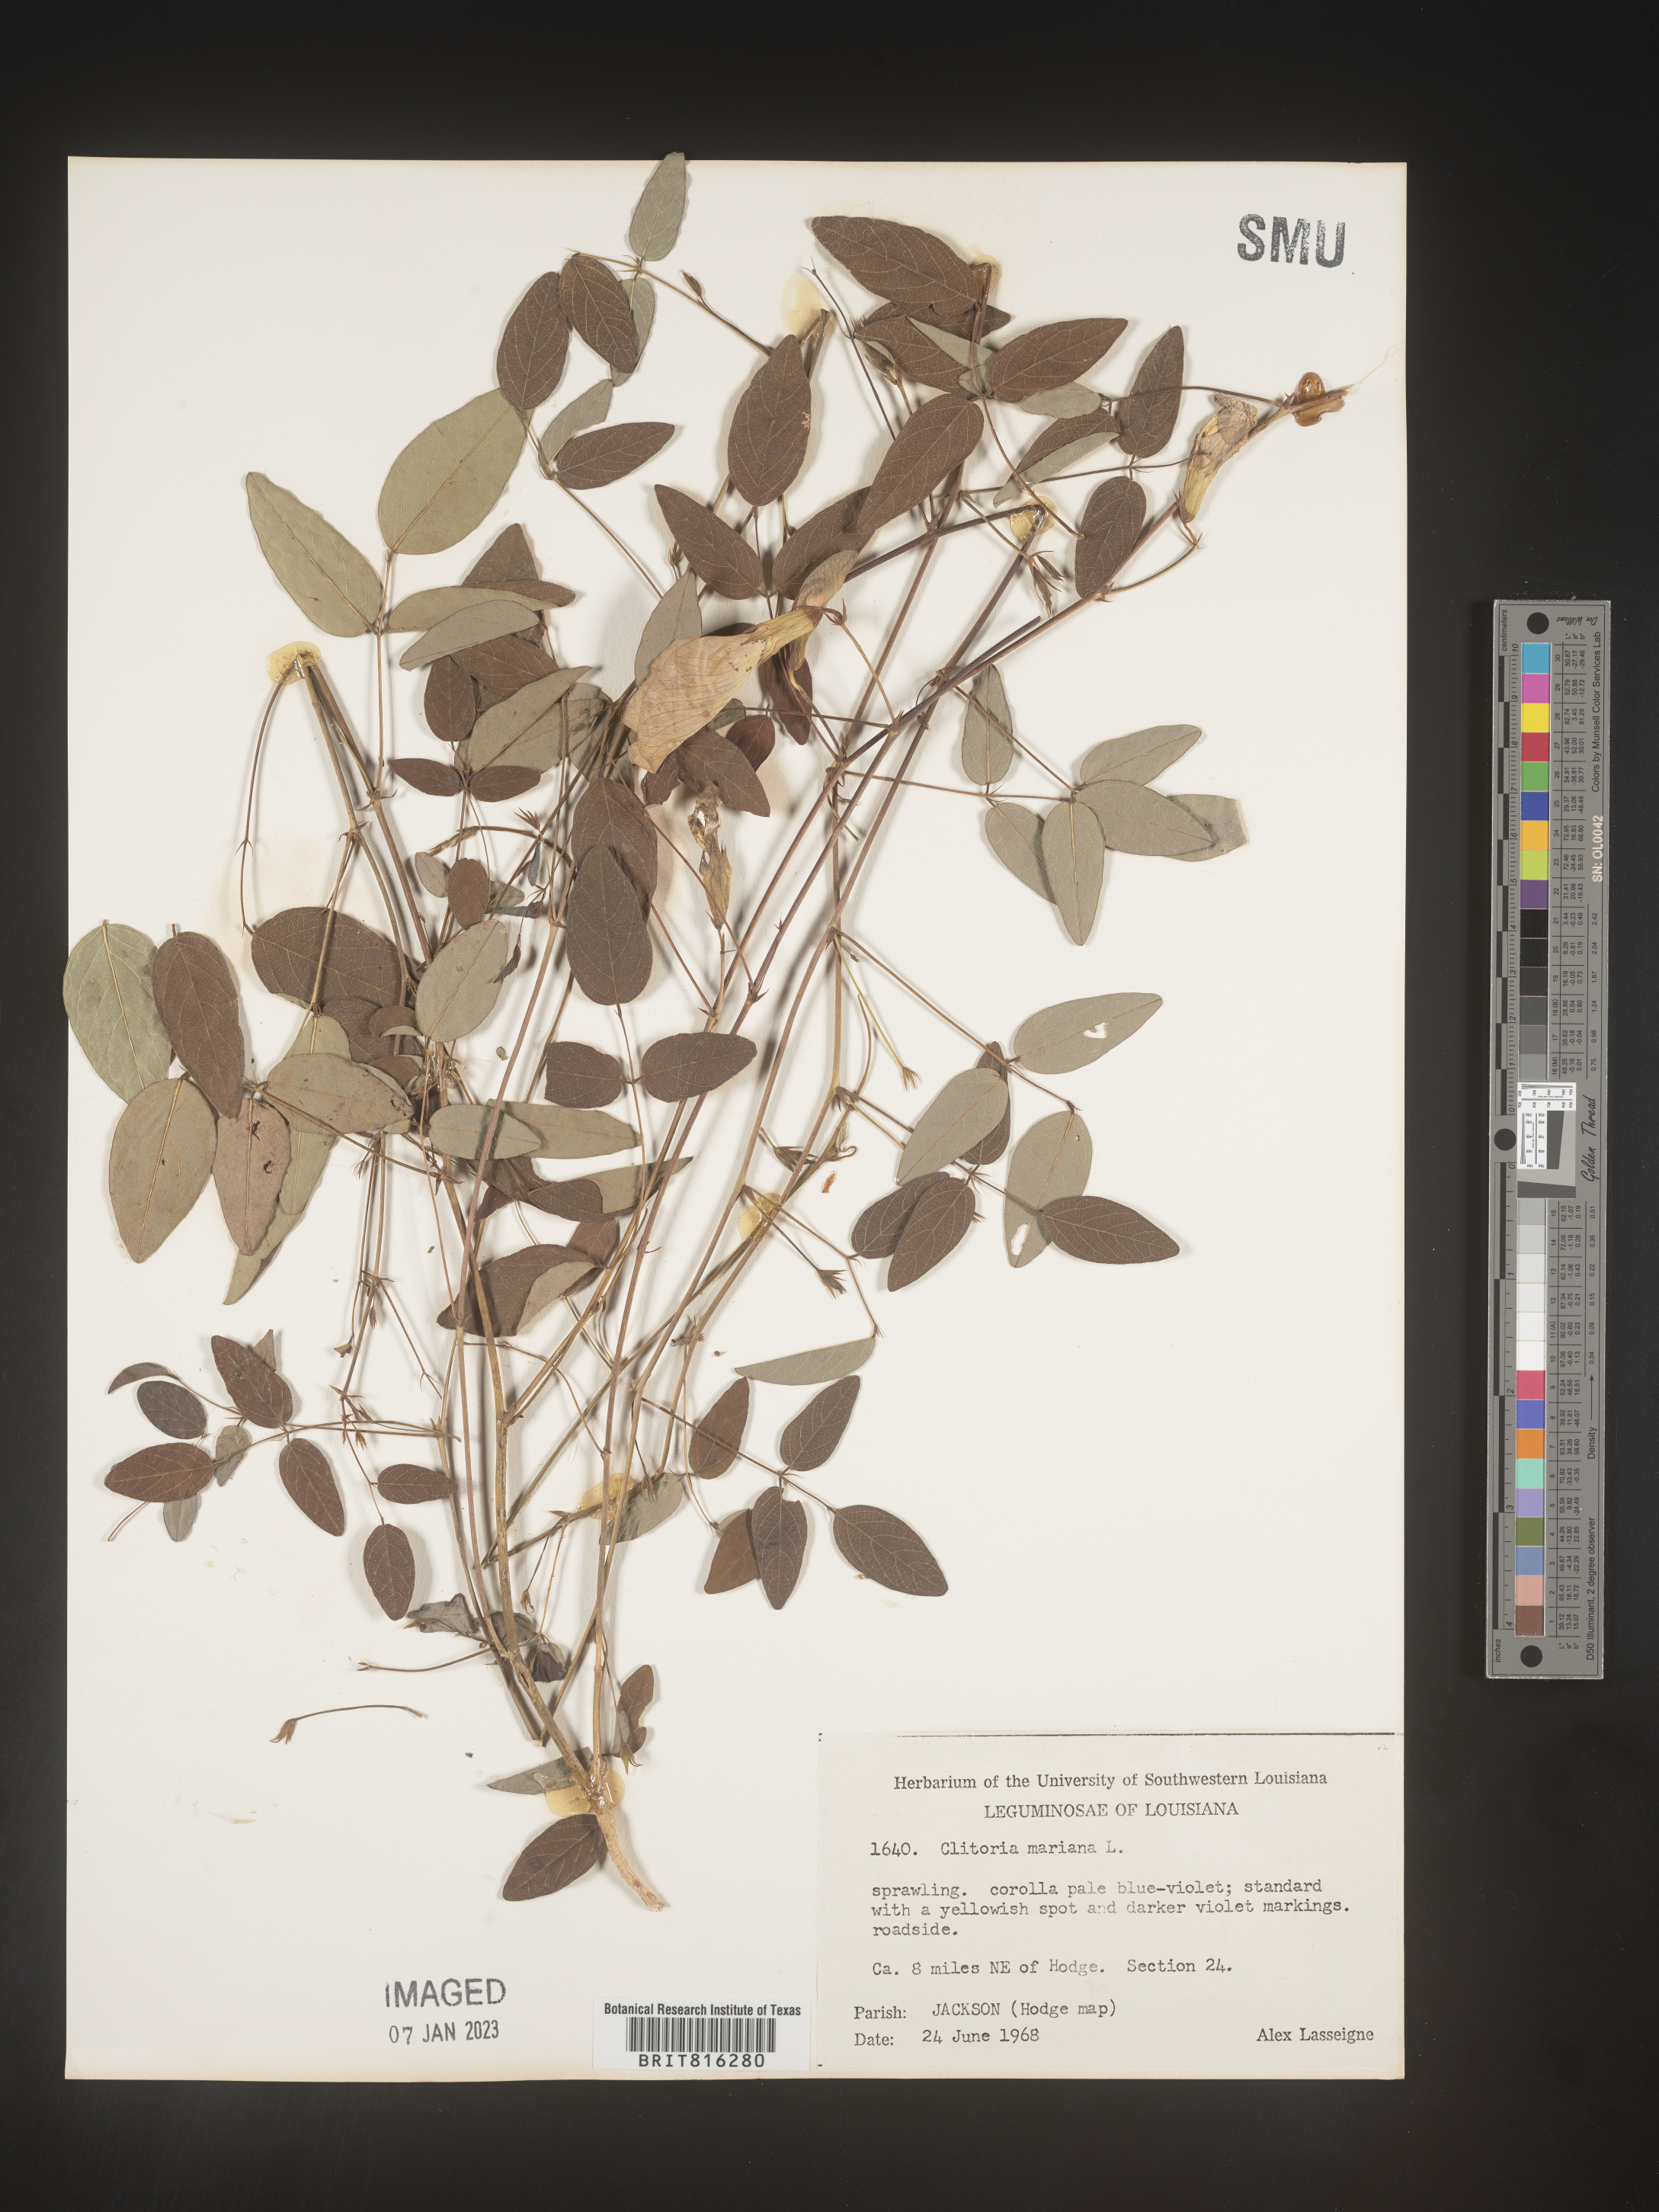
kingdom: Plantae
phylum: Tracheophyta
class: Magnoliopsida
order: Fabales
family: Fabaceae
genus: Clitoria
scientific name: Clitoria mariana
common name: Butterfly-pea
